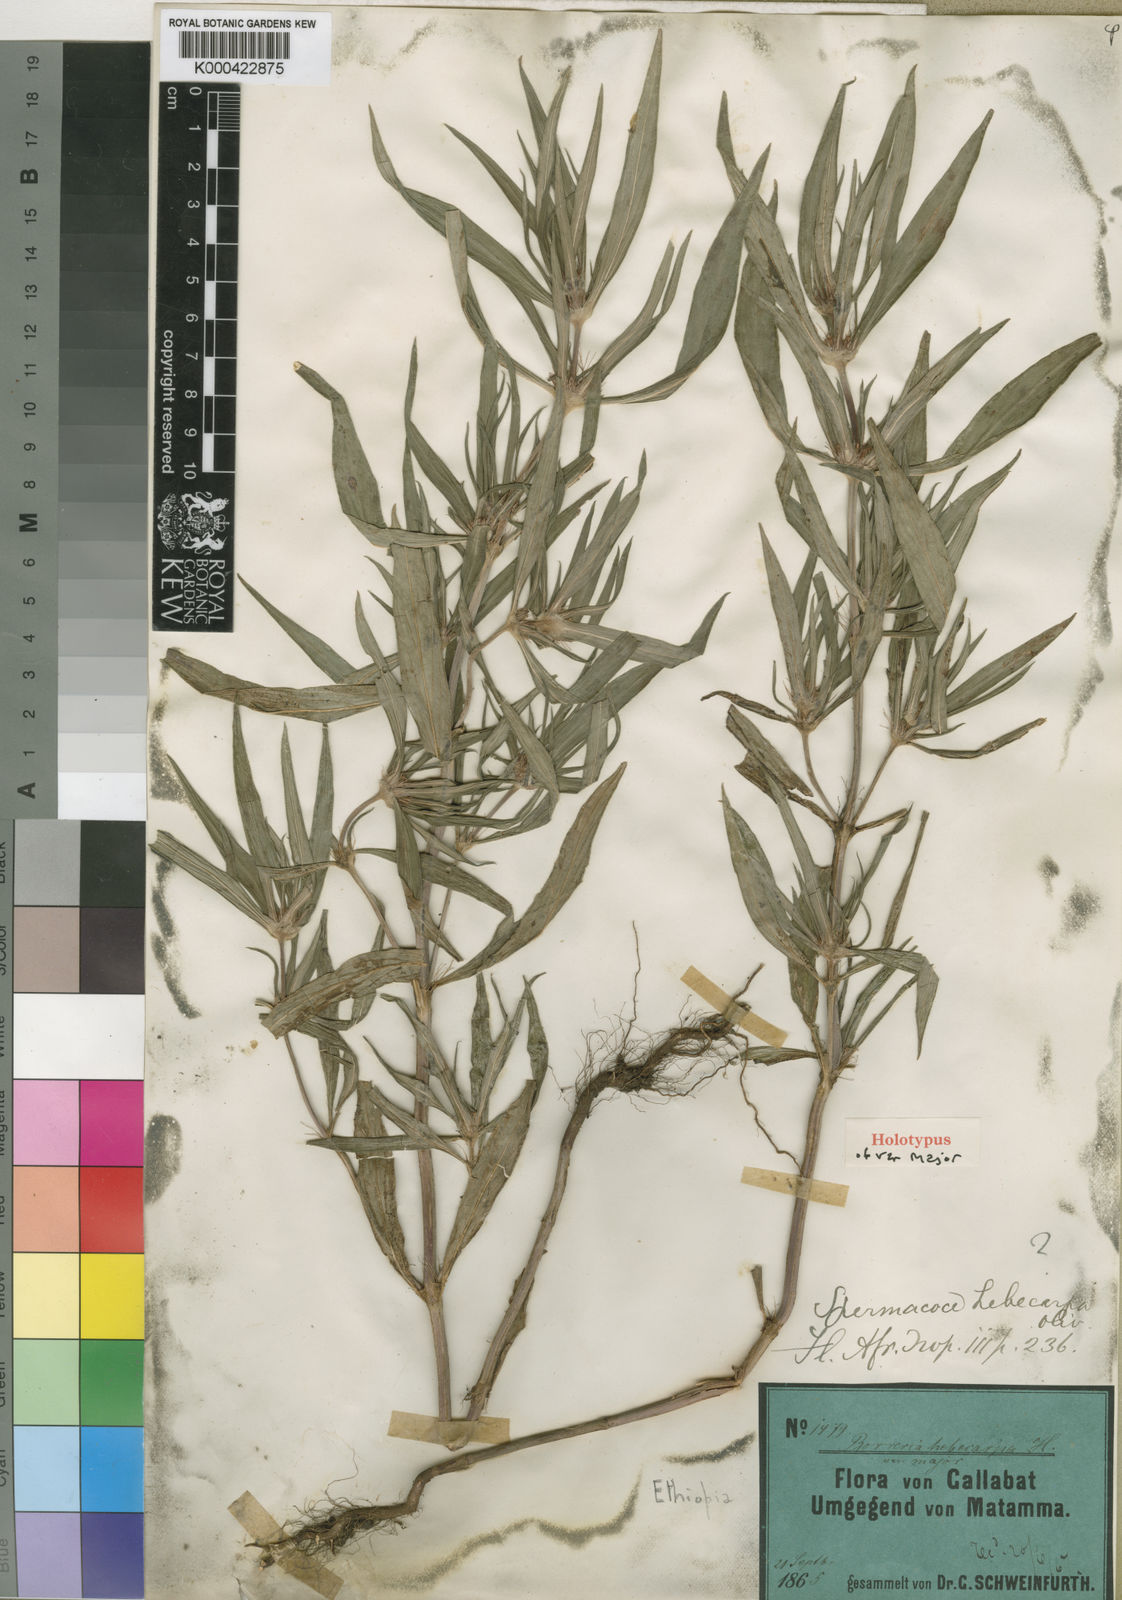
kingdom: Plantae
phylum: Tracheophyta
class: Magnoliopsida
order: Gentianales
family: Rubiaceae
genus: Spermacoce
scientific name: Spermacoce chaetocephala
